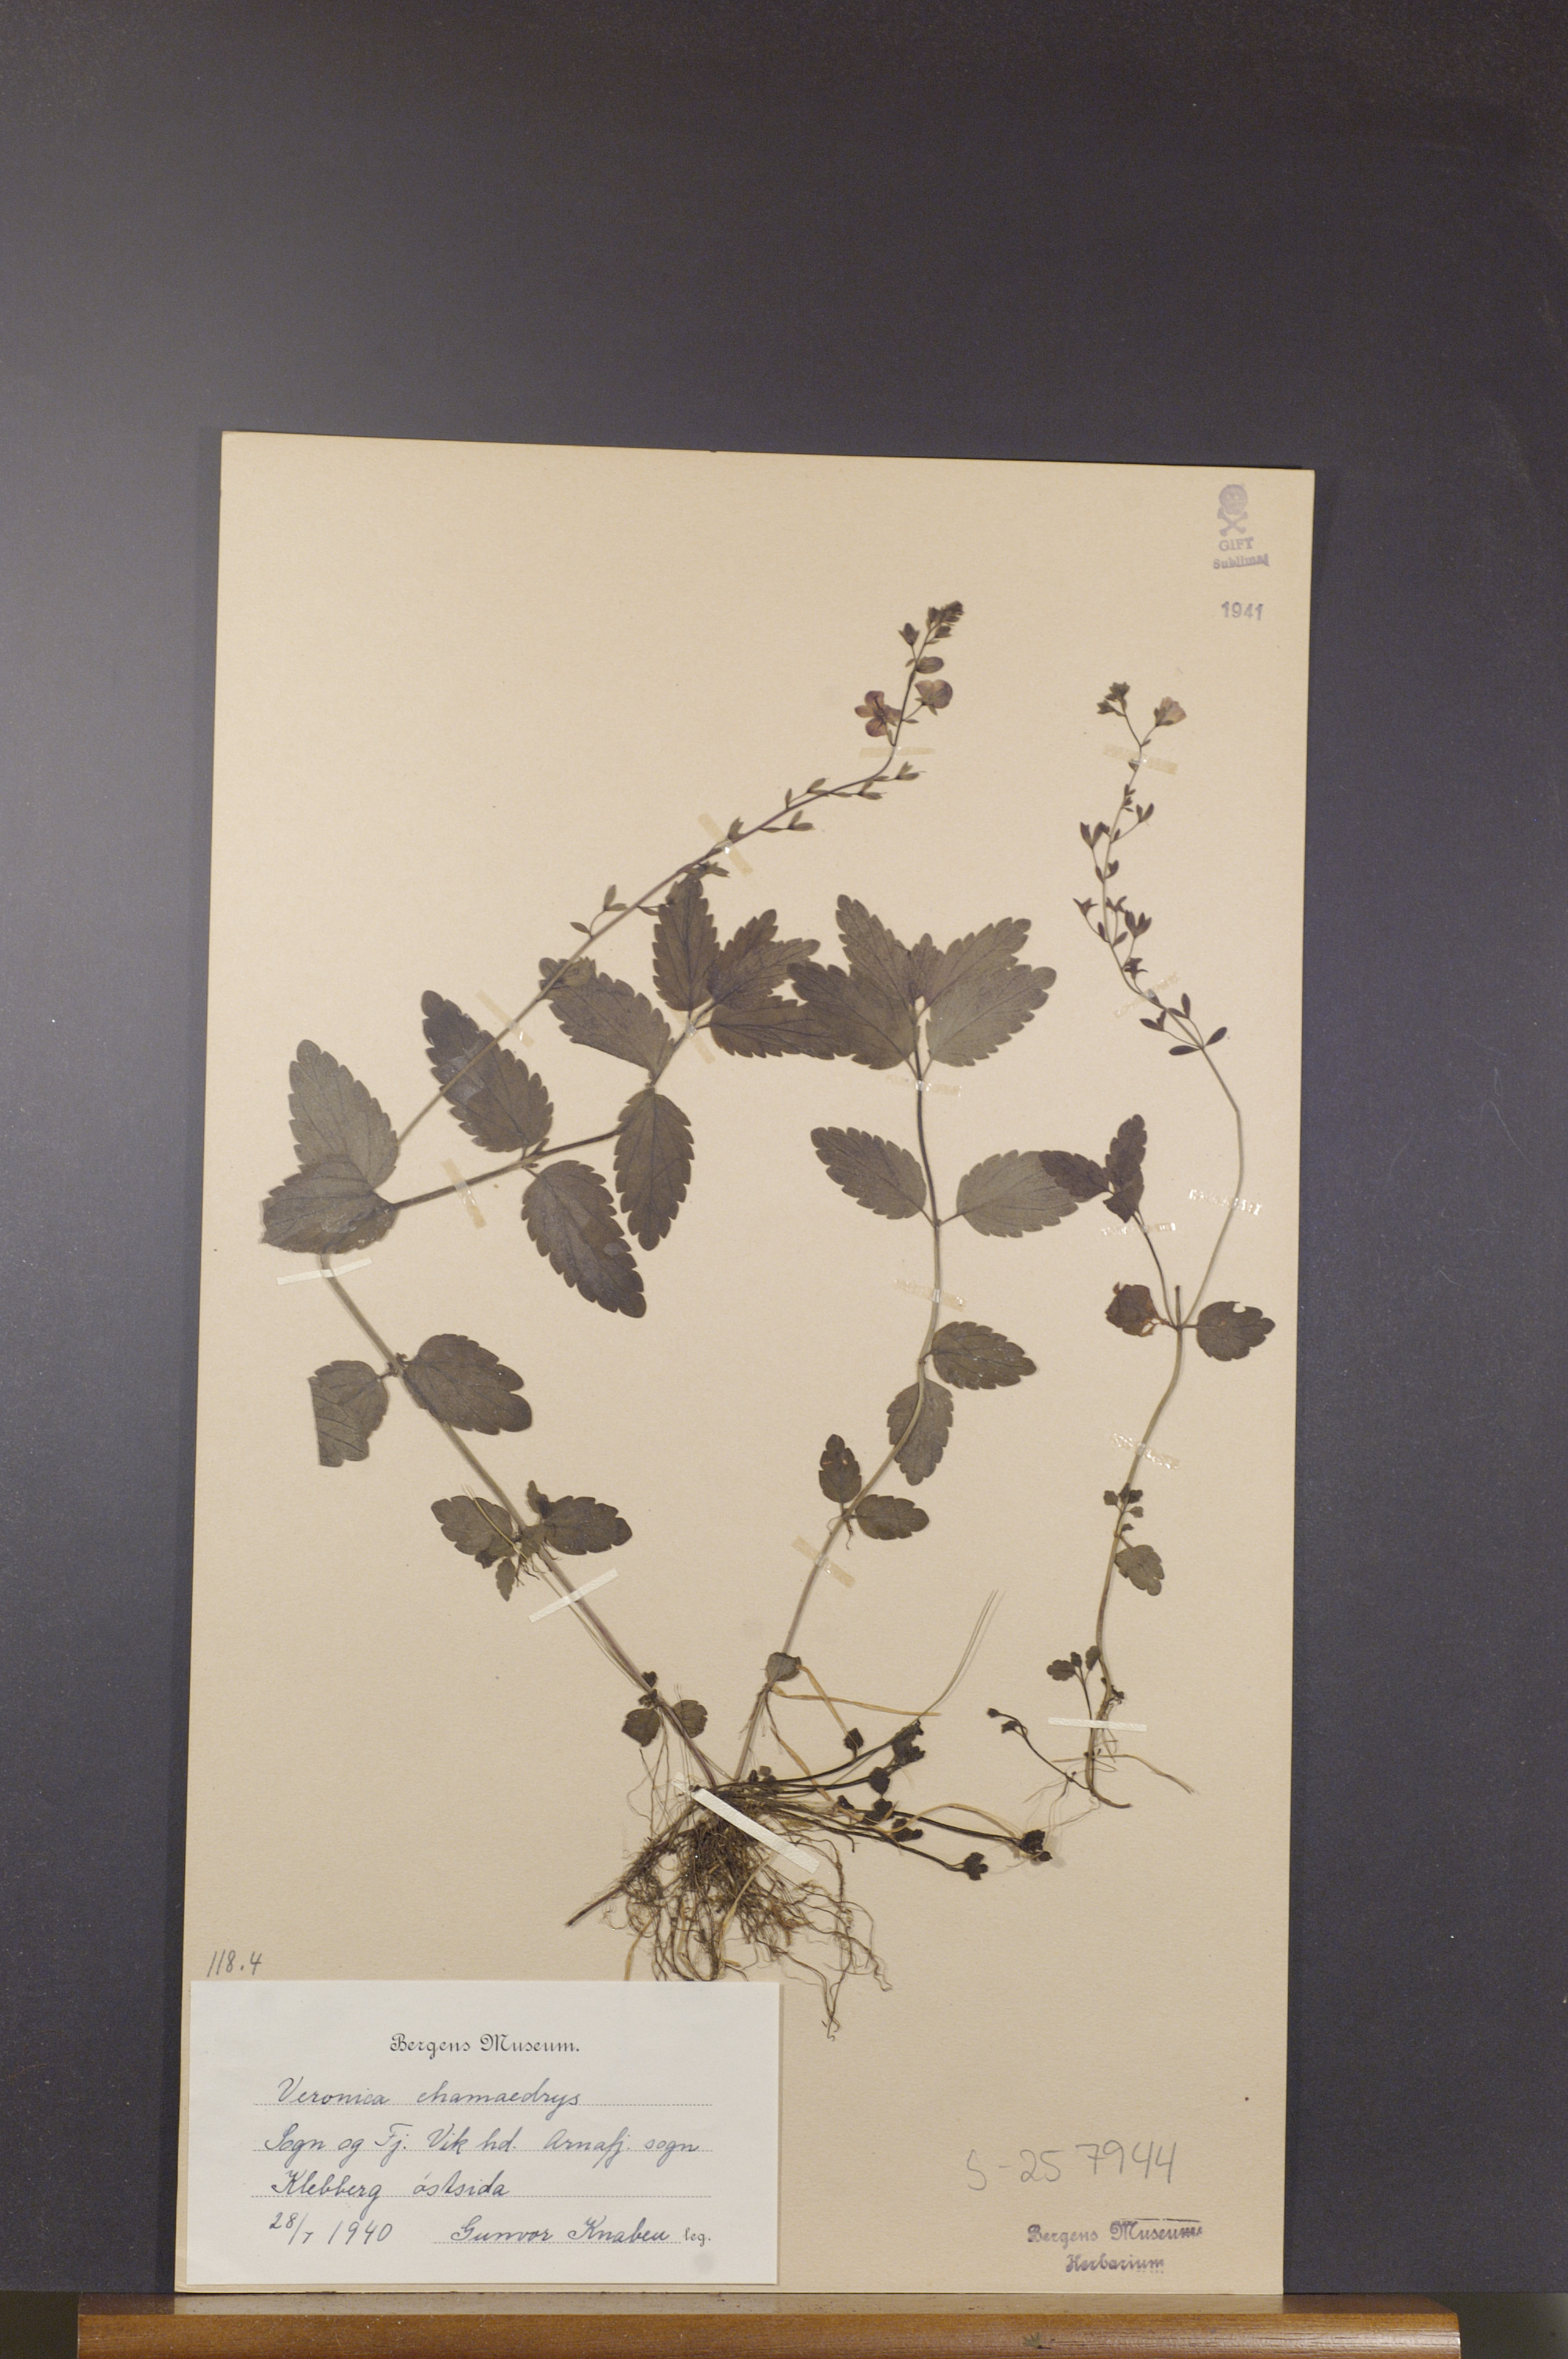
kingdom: Plantae
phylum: Tracheophyta
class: Magnoliopsida
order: Lamiales
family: Plantaginaceae
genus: Veronica
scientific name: Veronica chamaedrys
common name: Germander speedwell
